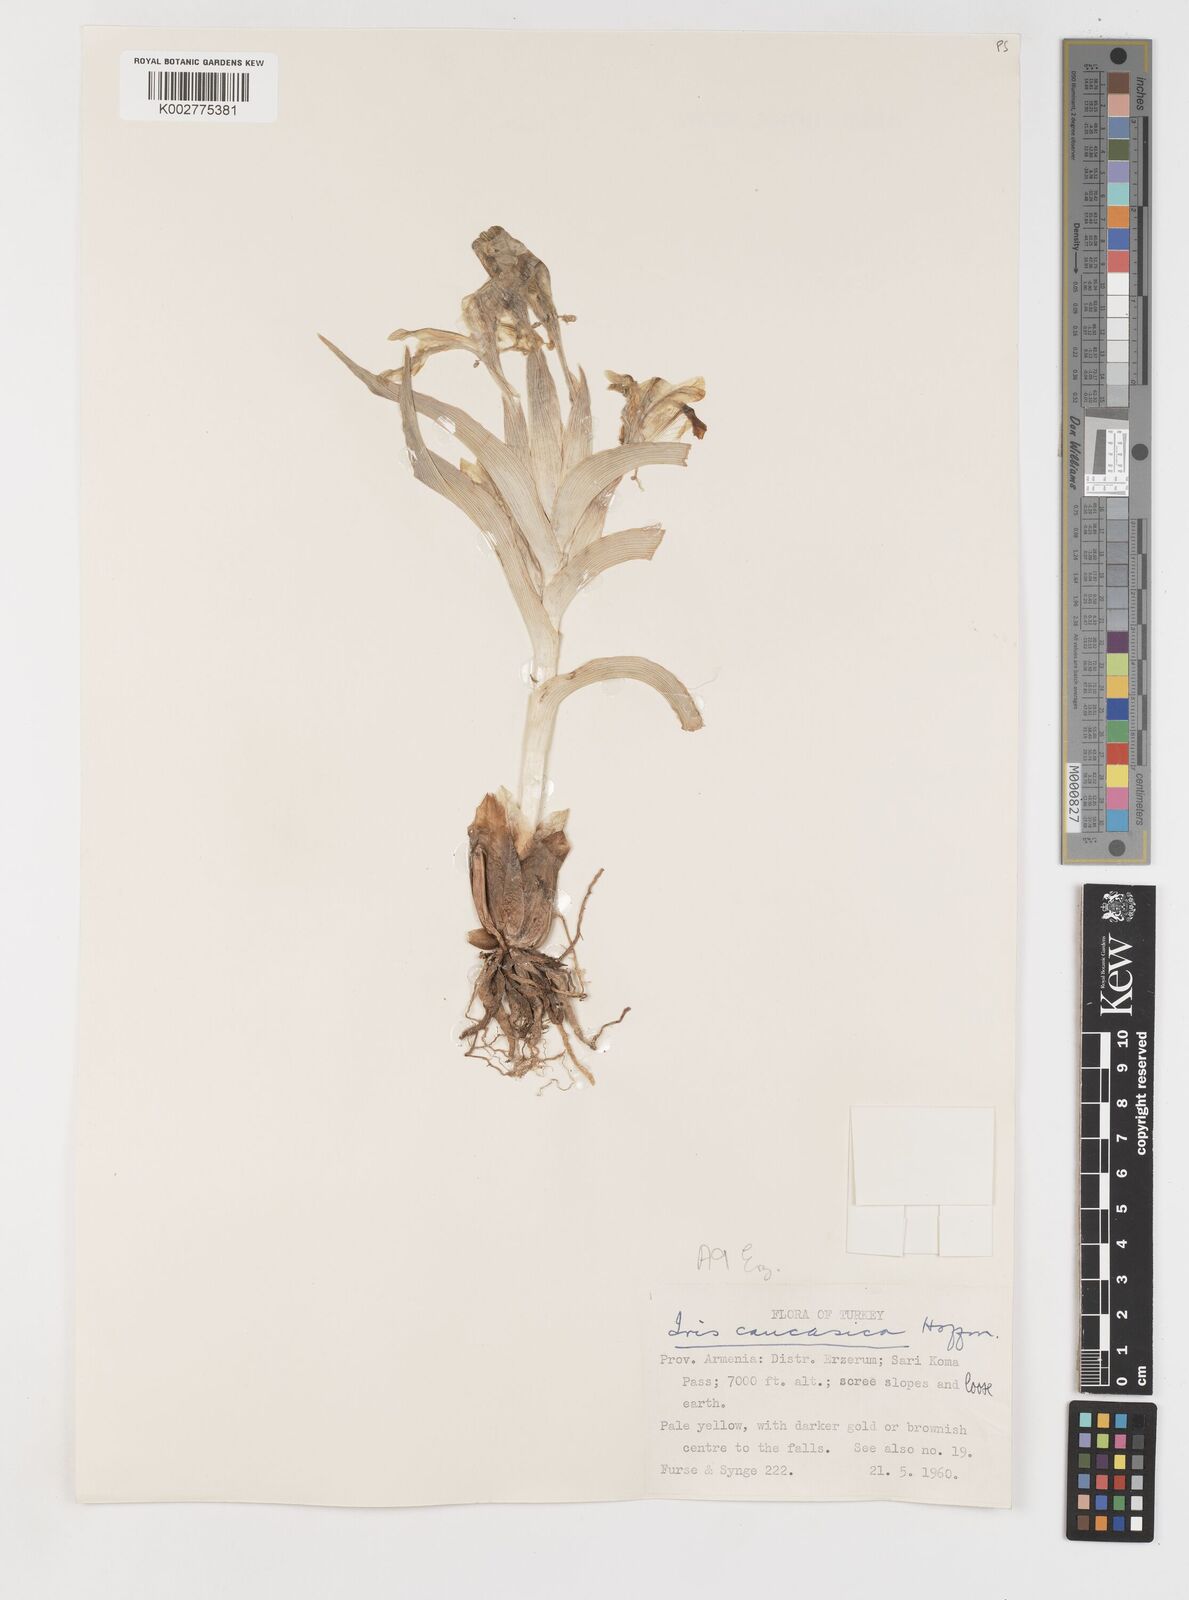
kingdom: Plantae
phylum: Tracheophyta
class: Liliopsida
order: Asparagales
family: Iridaceae
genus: Iris
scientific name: Iris caucasica
